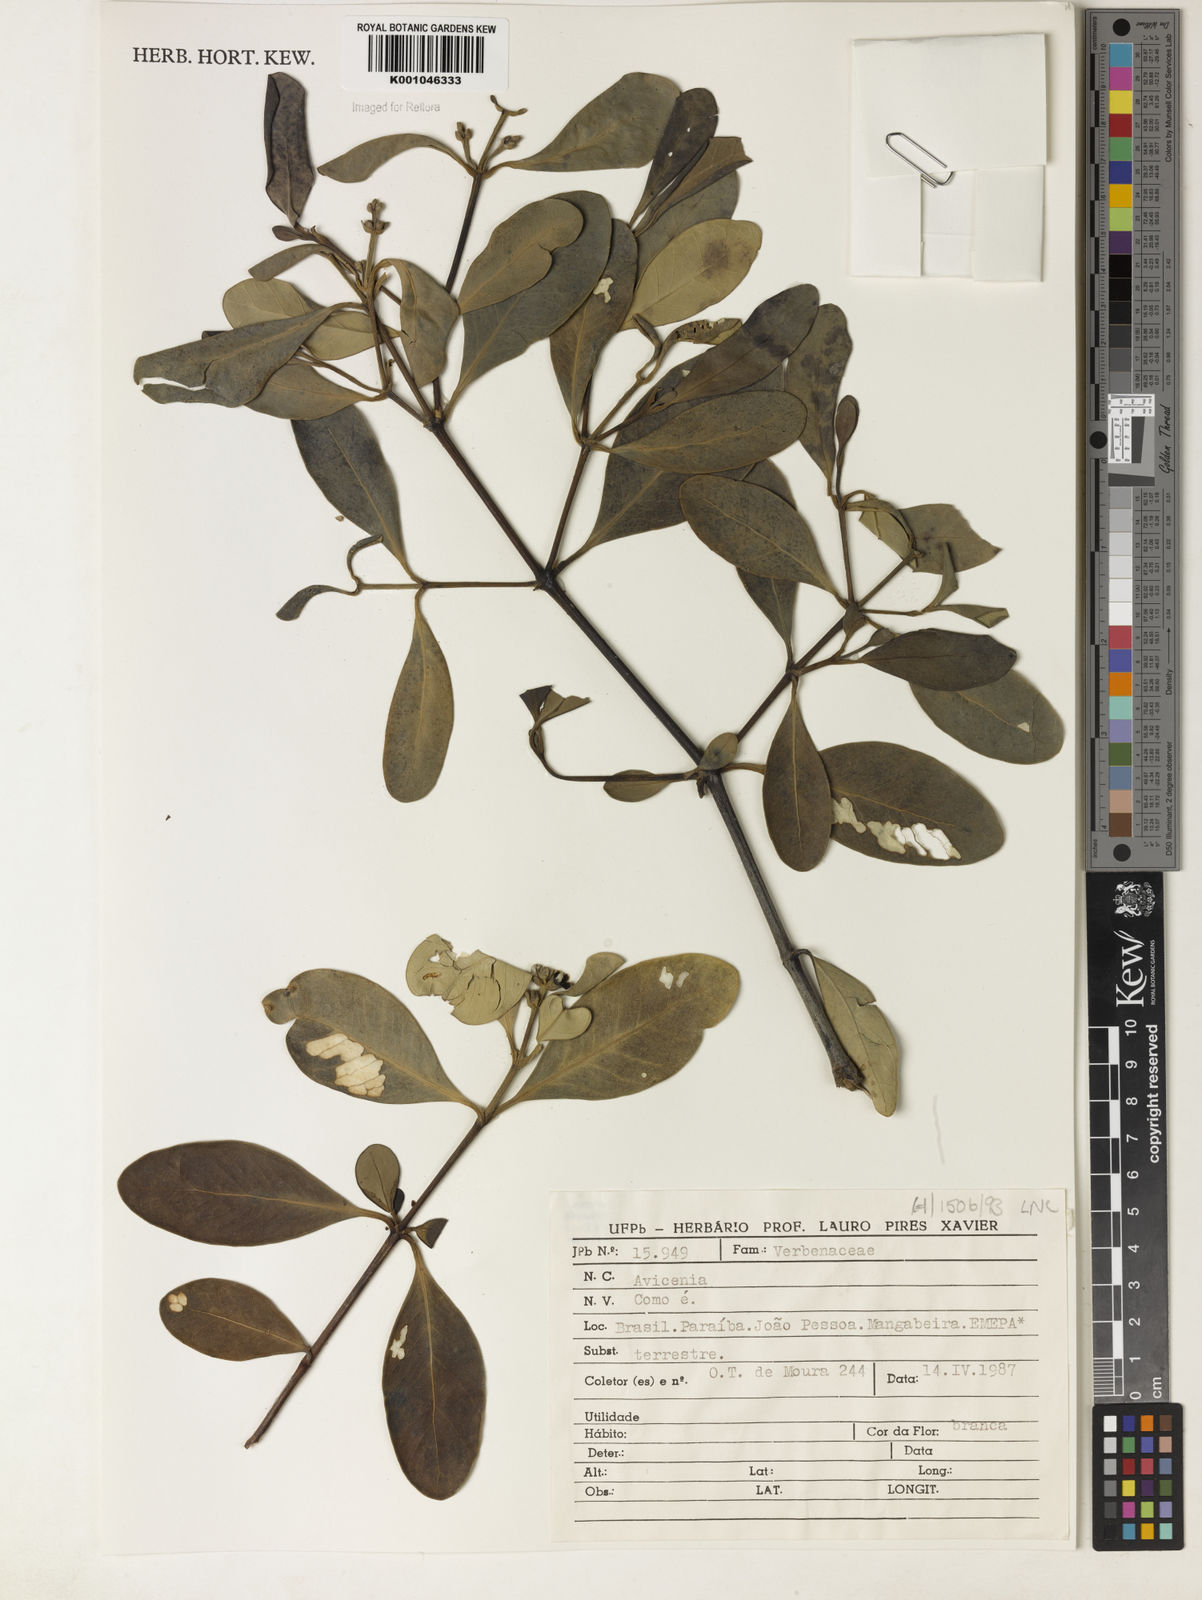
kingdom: Plantae
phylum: Tracheophyta
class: Magnoliopsida
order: Lamiales
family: Acanthaceae
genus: Avicennia
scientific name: Avicennia
